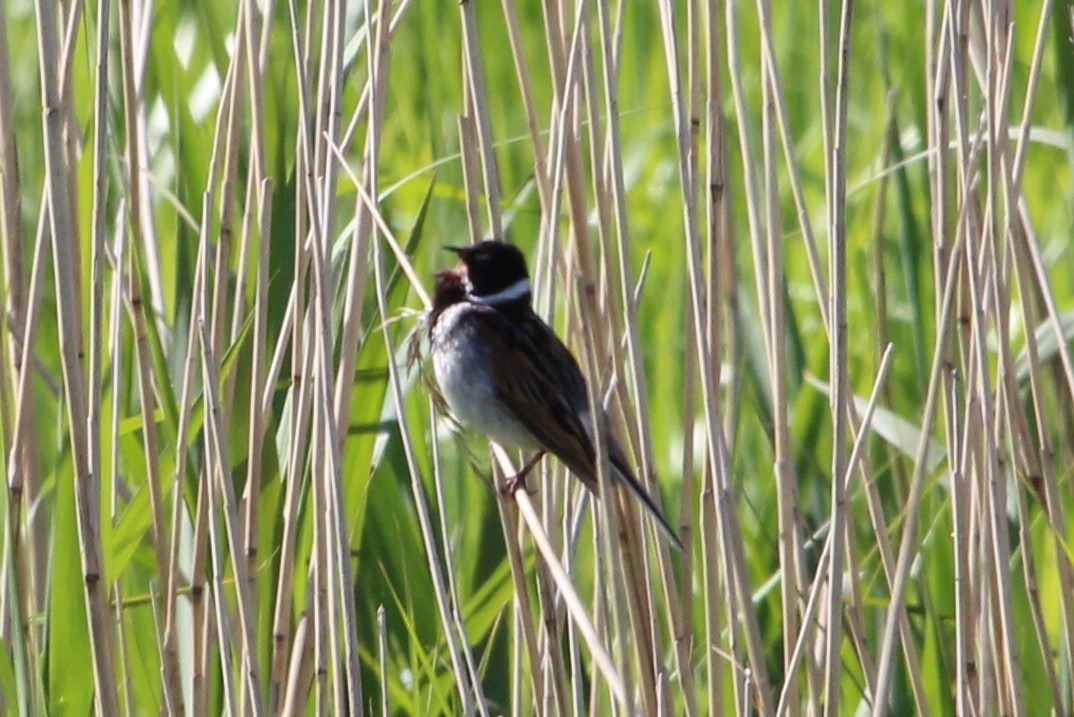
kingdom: Animalia
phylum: Chordata
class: Aves
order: Passeriformes
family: Emberizidae
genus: Emberiza
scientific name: Emberiza schoeniclus
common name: Rørspurv
